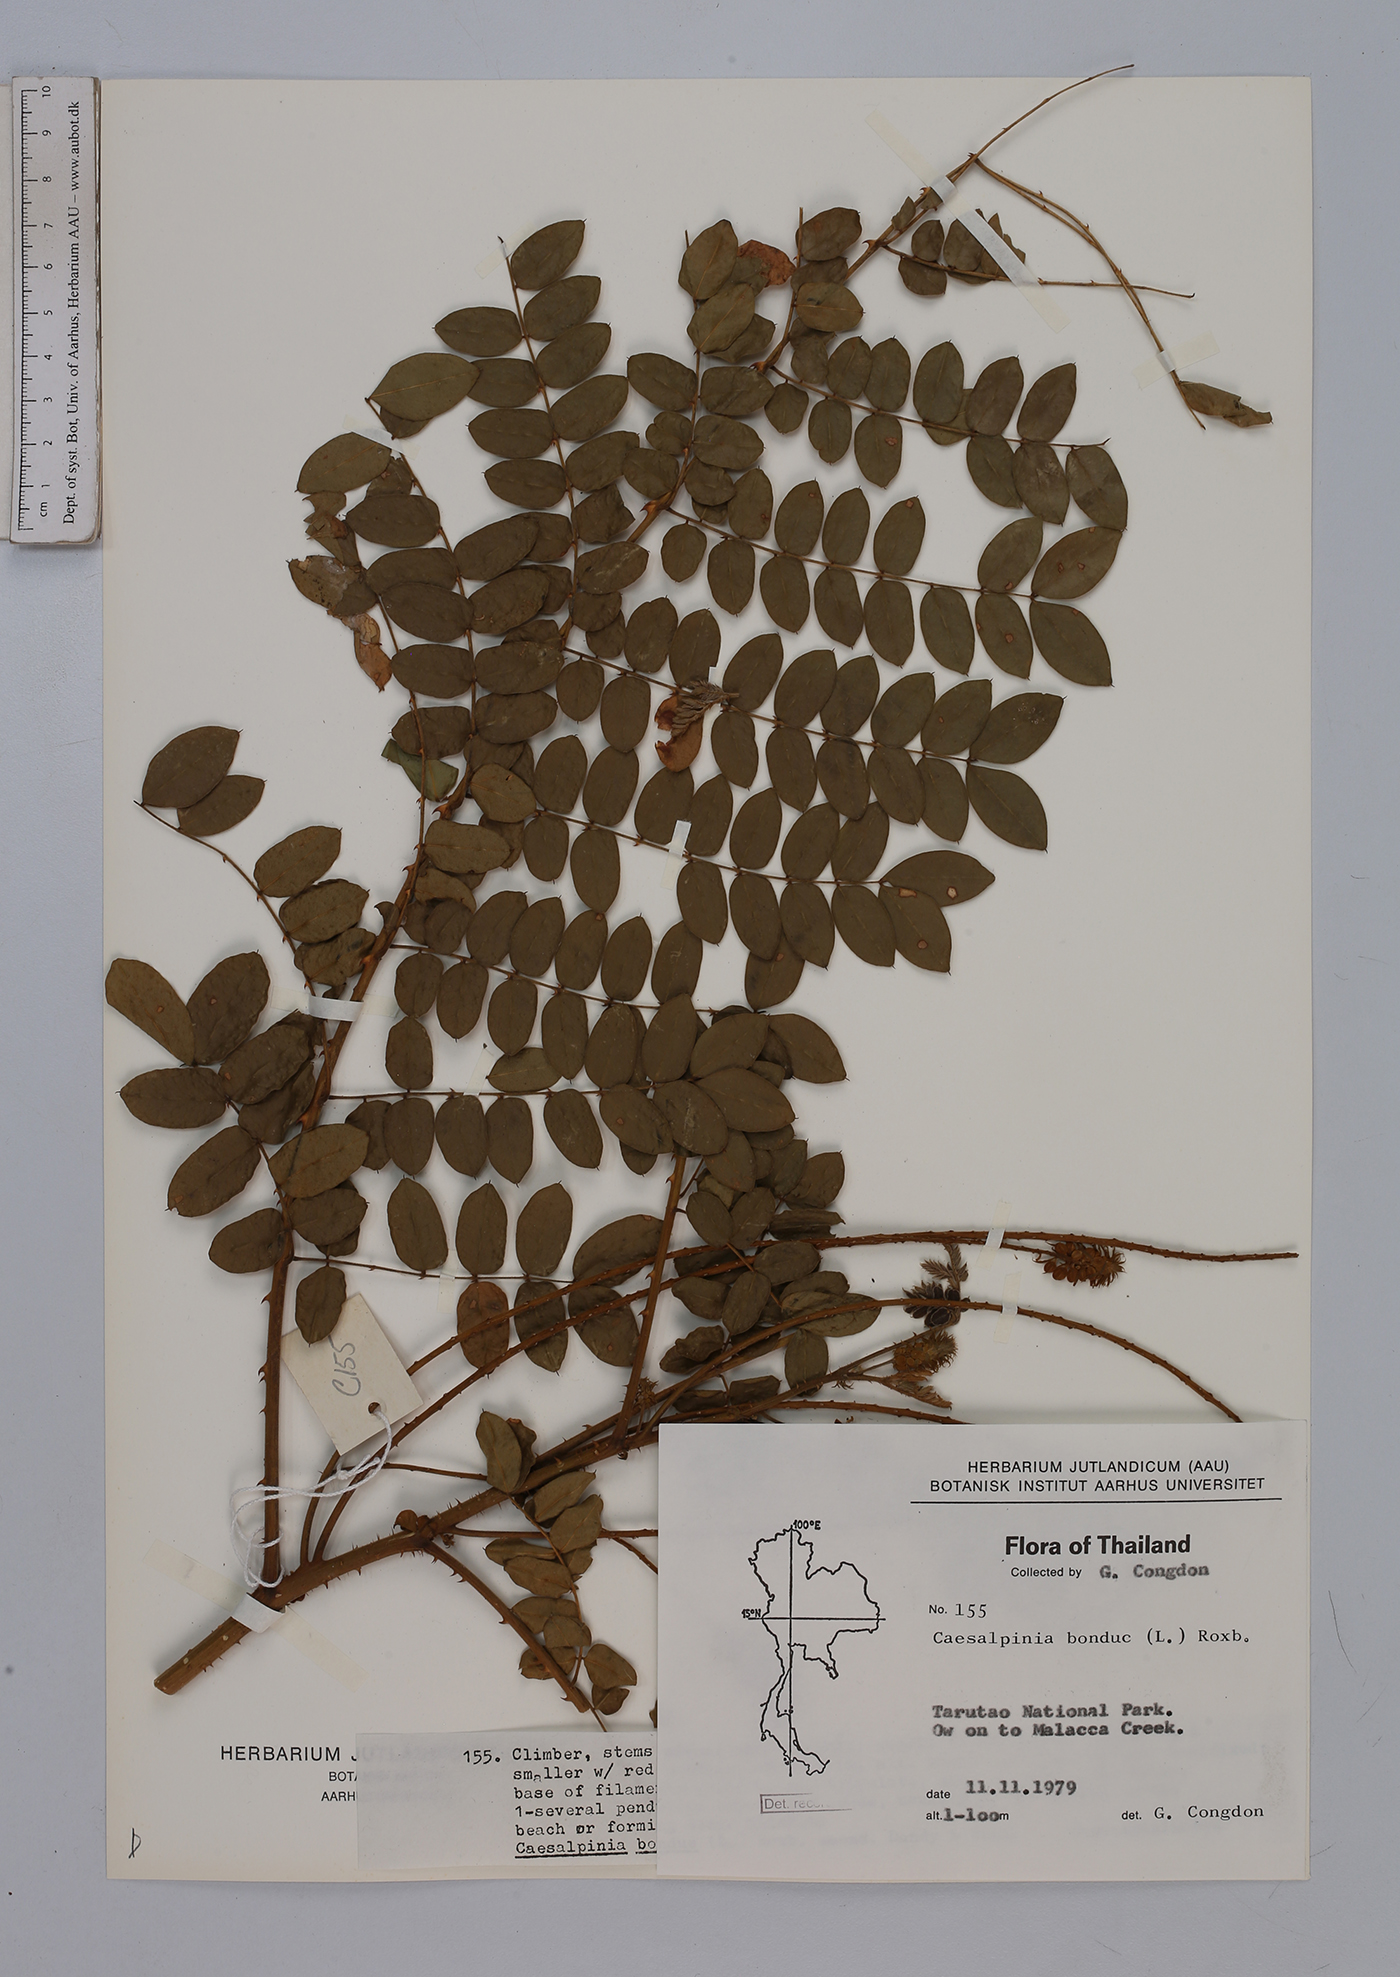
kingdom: Plantae
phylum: Tracheophyta
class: Magnoliopsida
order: Fabales
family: Fabaceae
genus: Guilandina
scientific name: Guilandina bonduc
